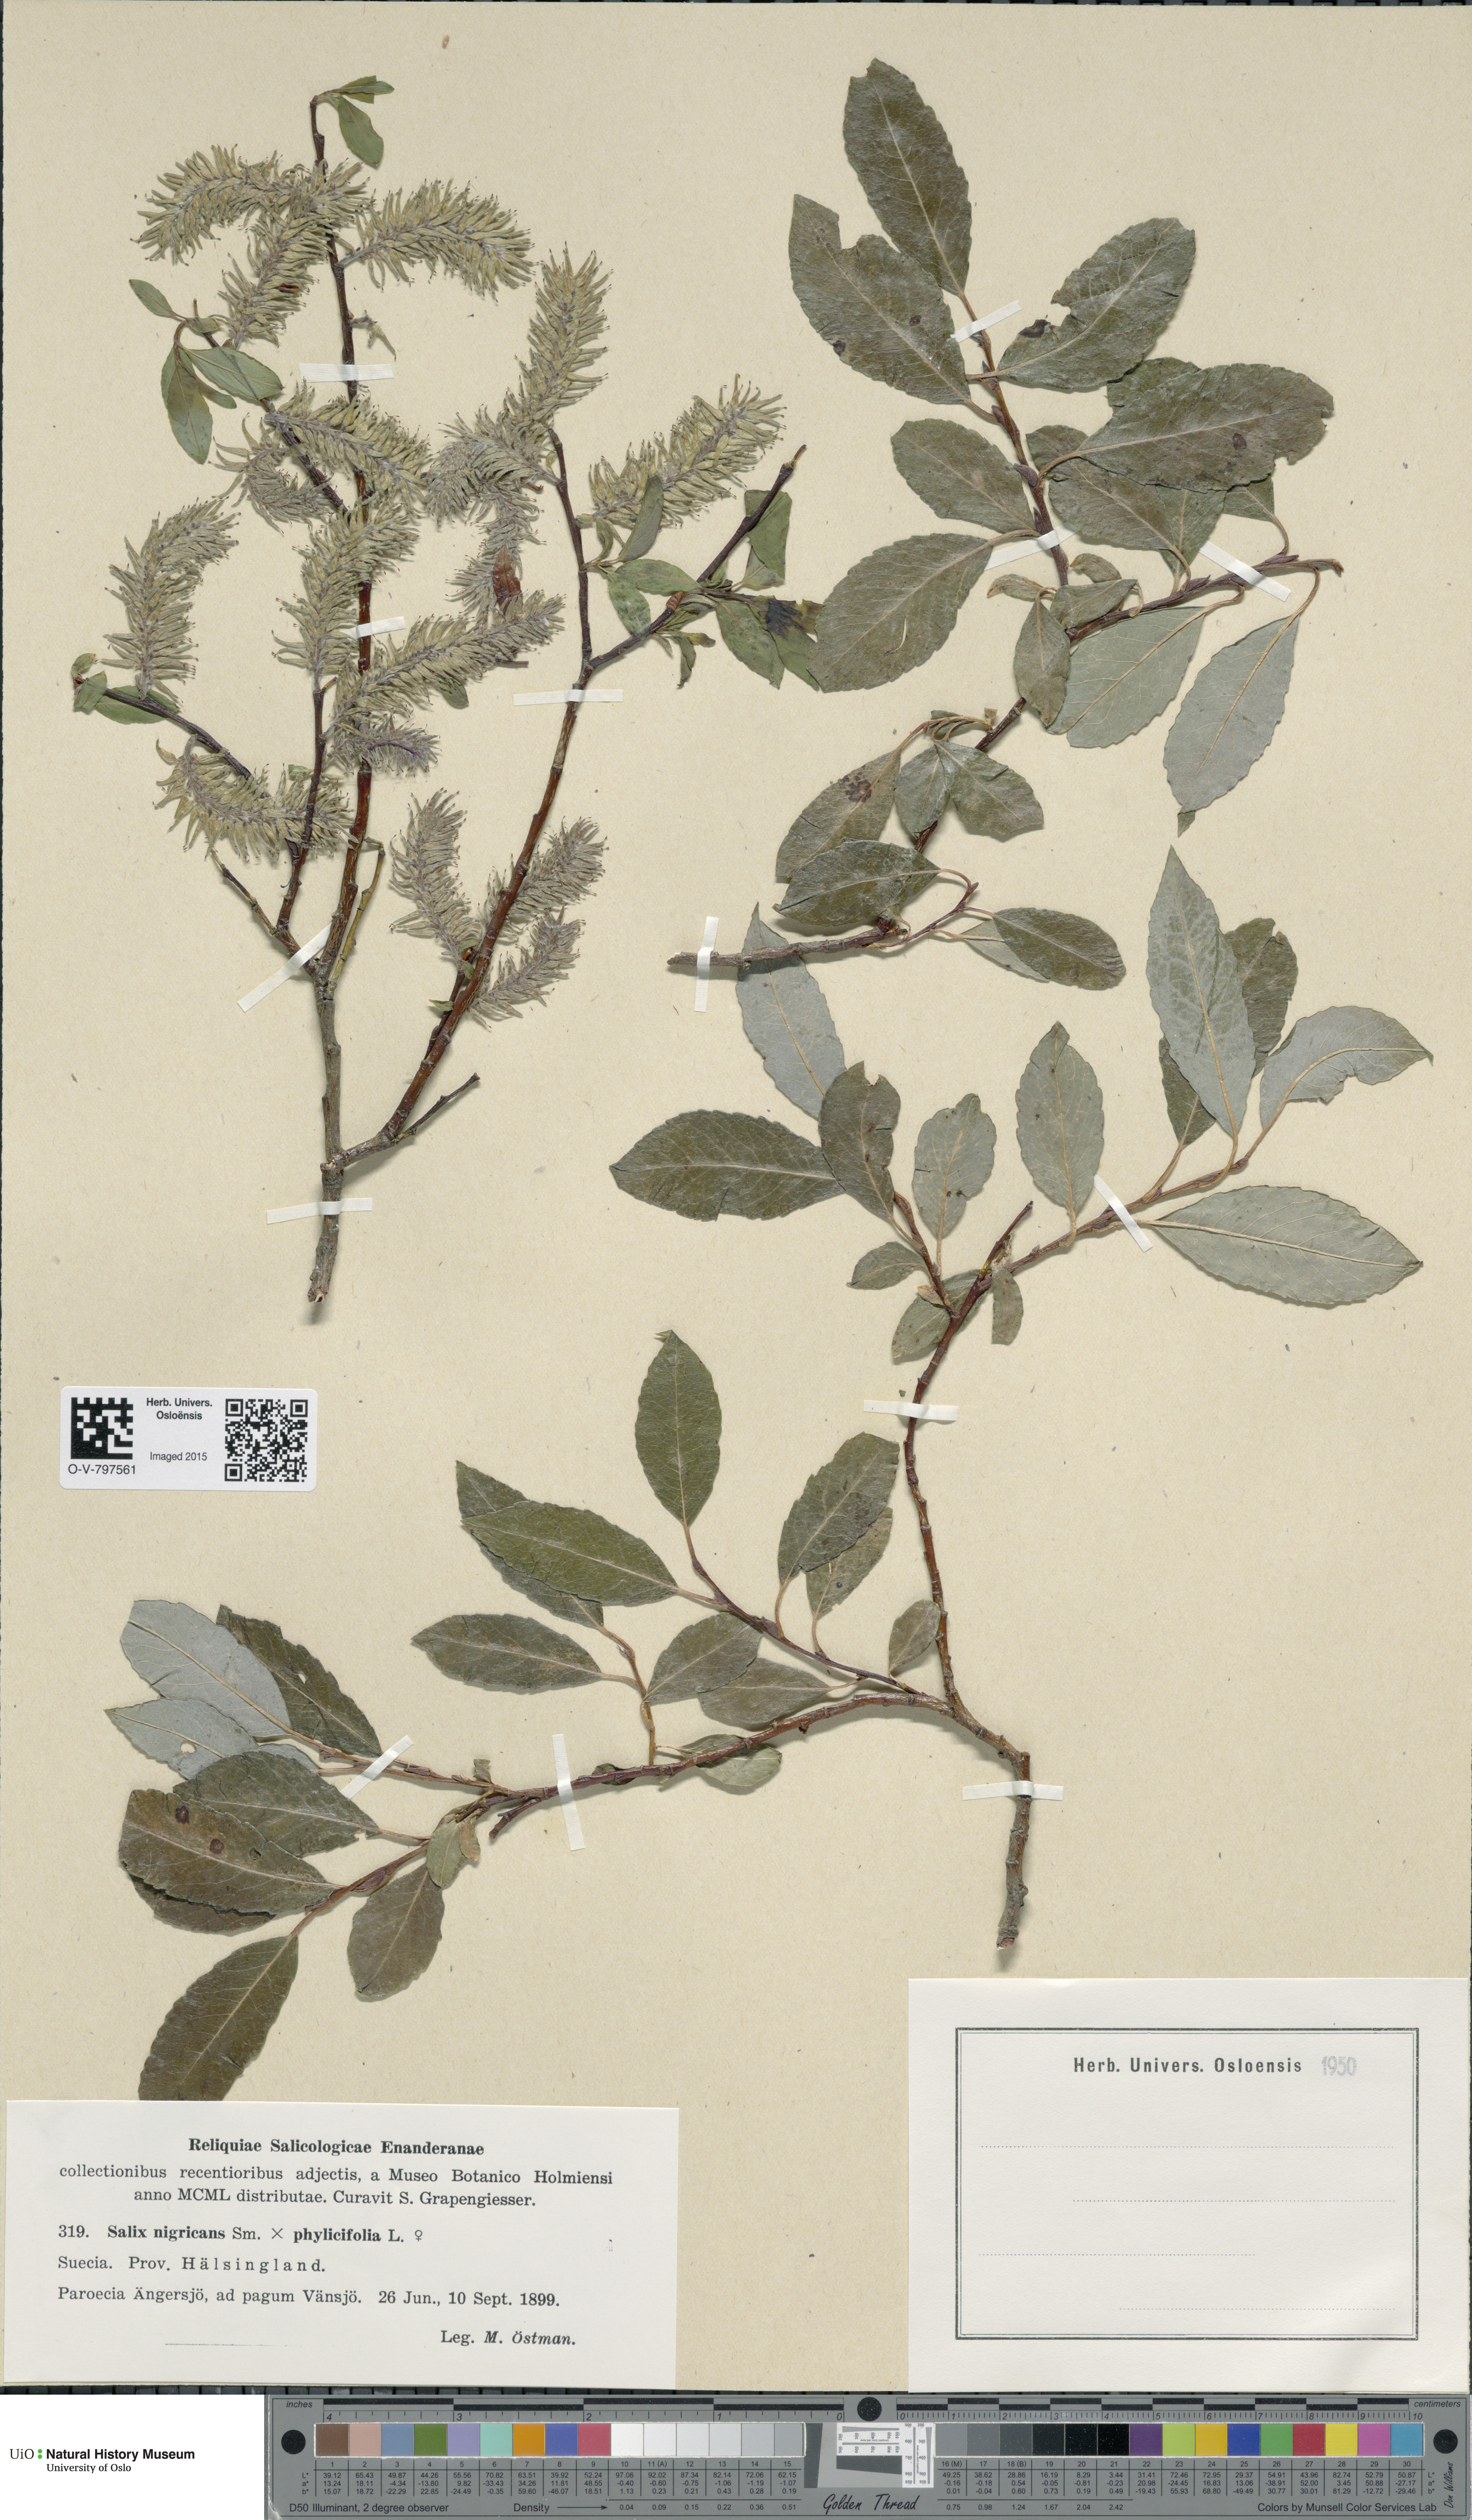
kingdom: Plantae
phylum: Tracheophyta
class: Magnoliopsida
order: Malpighiales
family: Salicaceae
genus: Salix
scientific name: Salix
